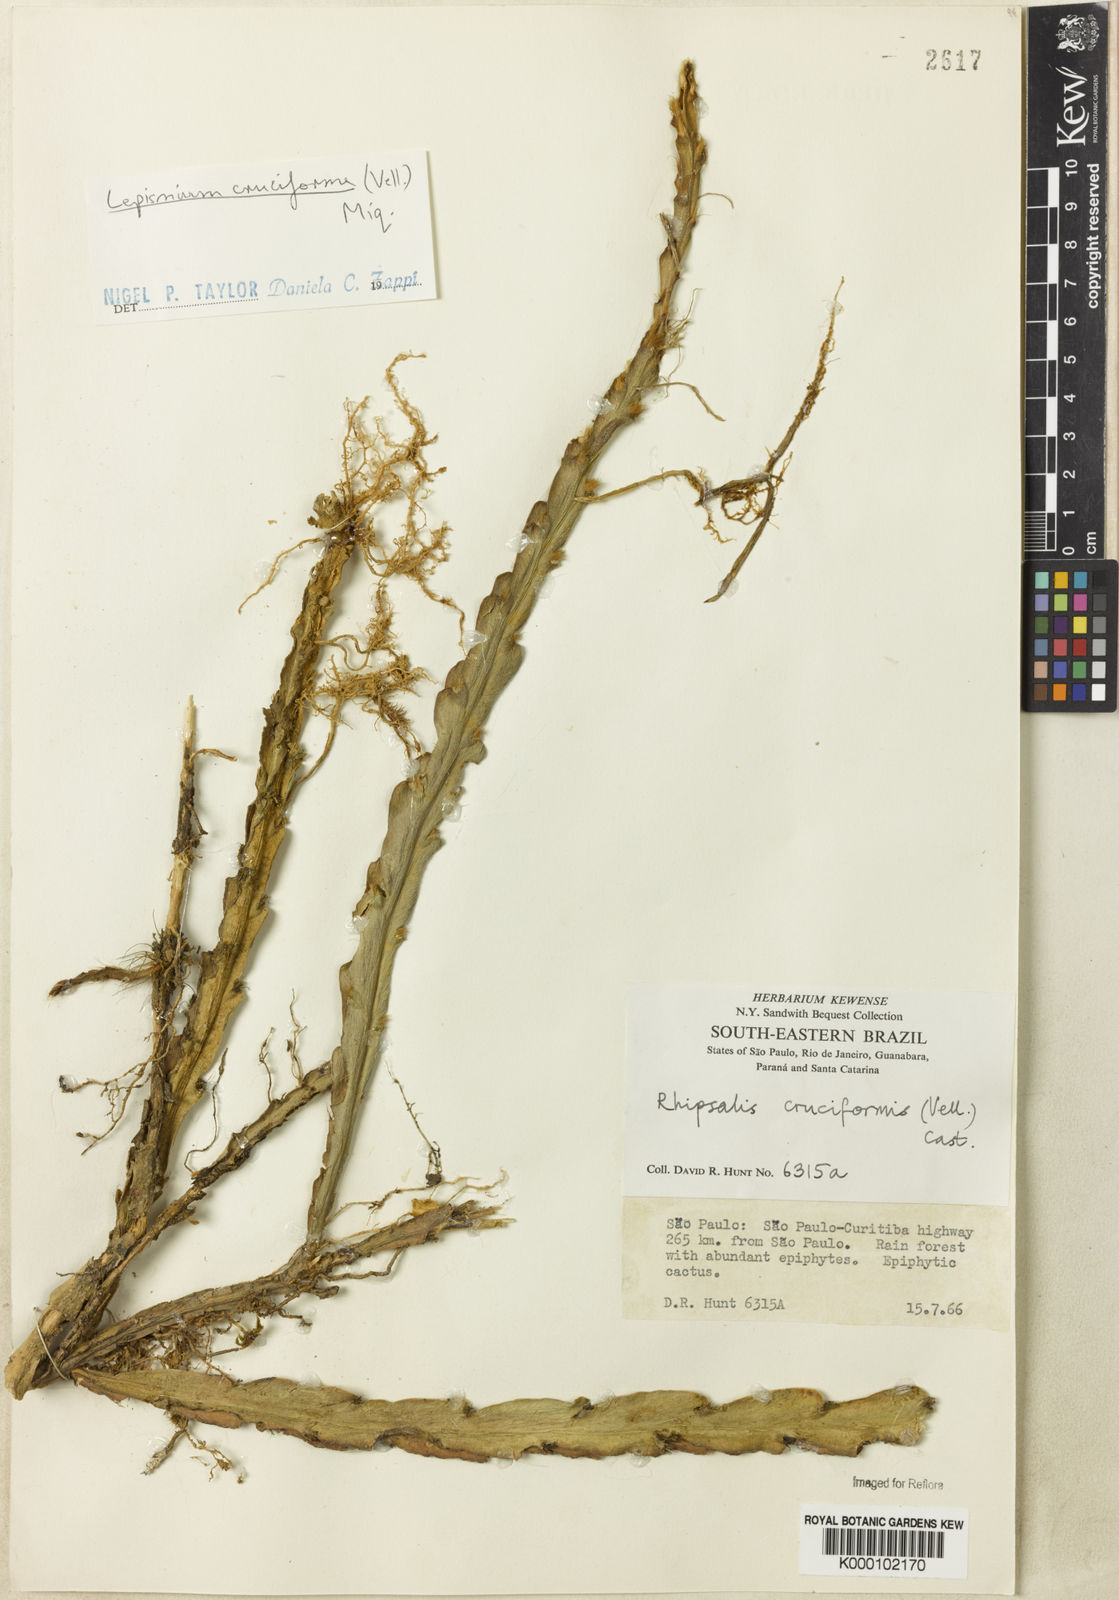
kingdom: Plantae
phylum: Tracheophyta
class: Magnoliopsida
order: Caryophyllales
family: Cactaceae
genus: Lepismium
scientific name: Lepismium cruciforme
